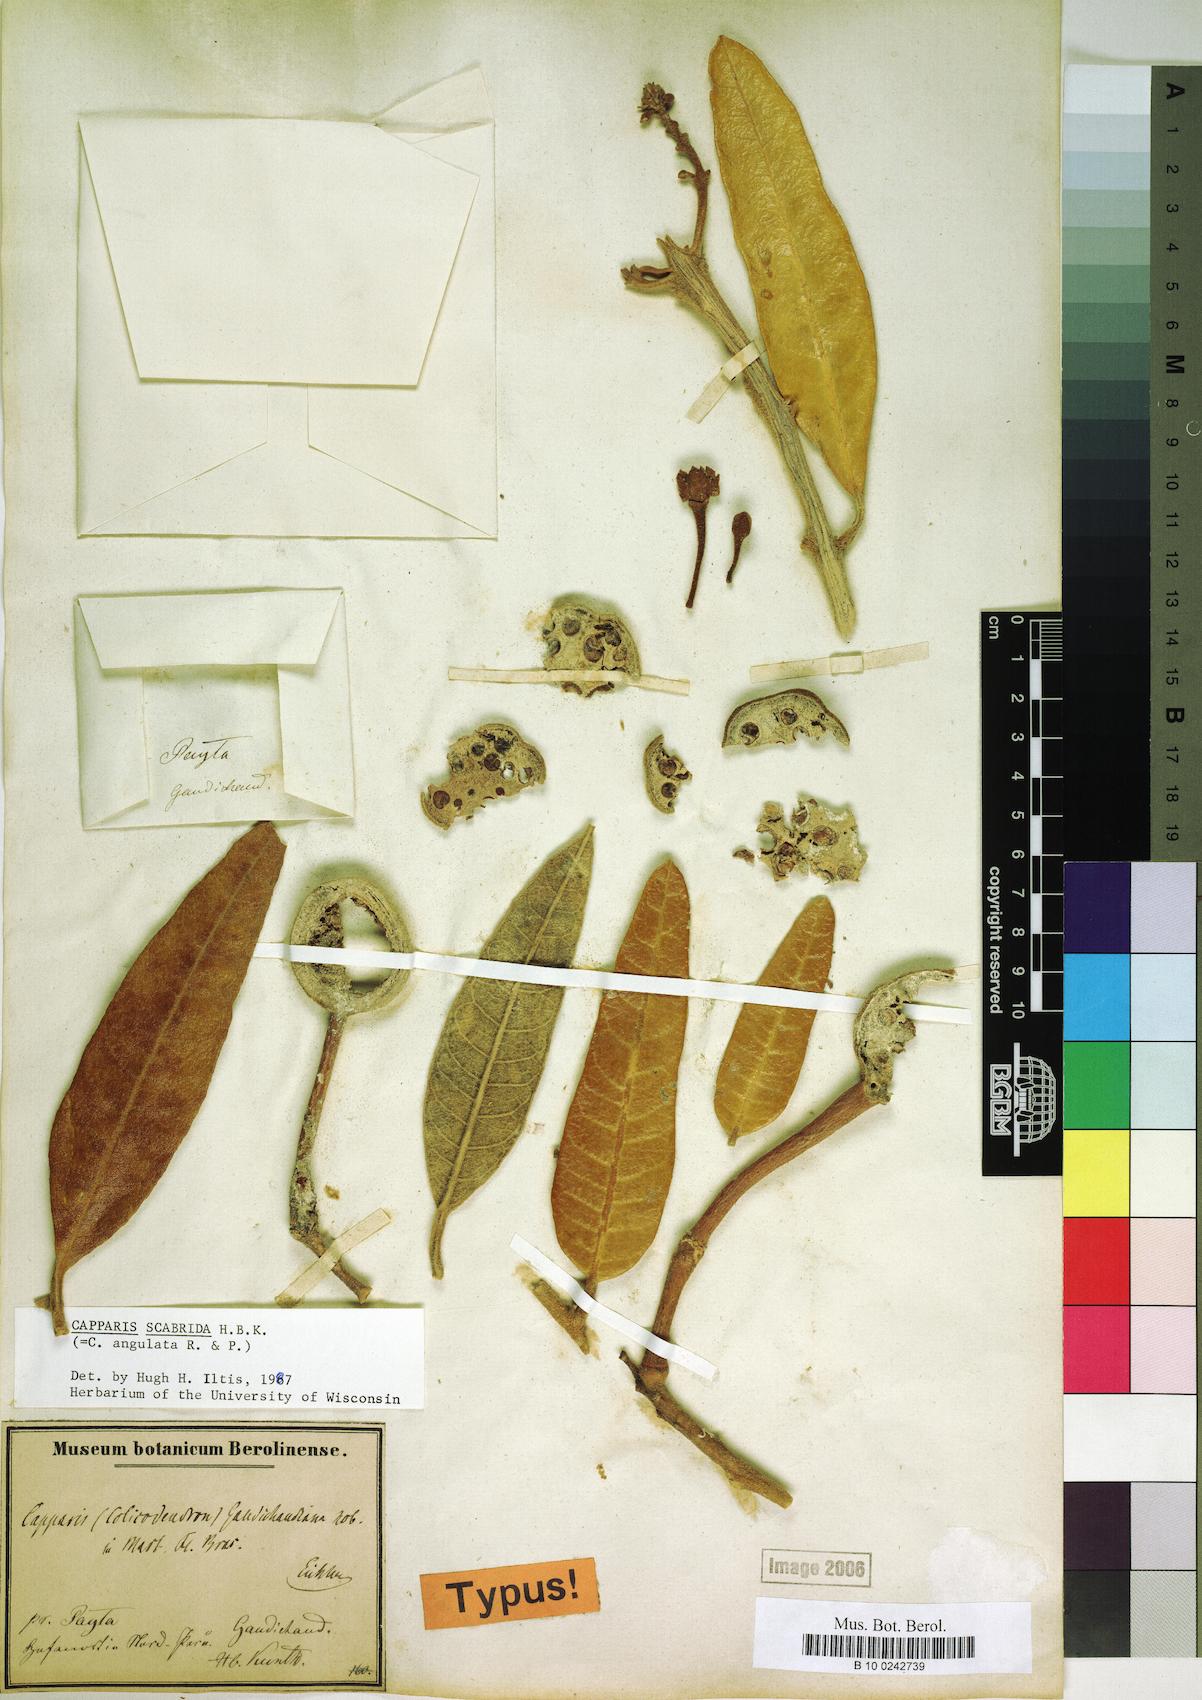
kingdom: Plantae
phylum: Tracheophyta
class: Magnoliopsida
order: Brassicales
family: Capparaceae
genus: Colicodendron
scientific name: Colicodendron scabridum
